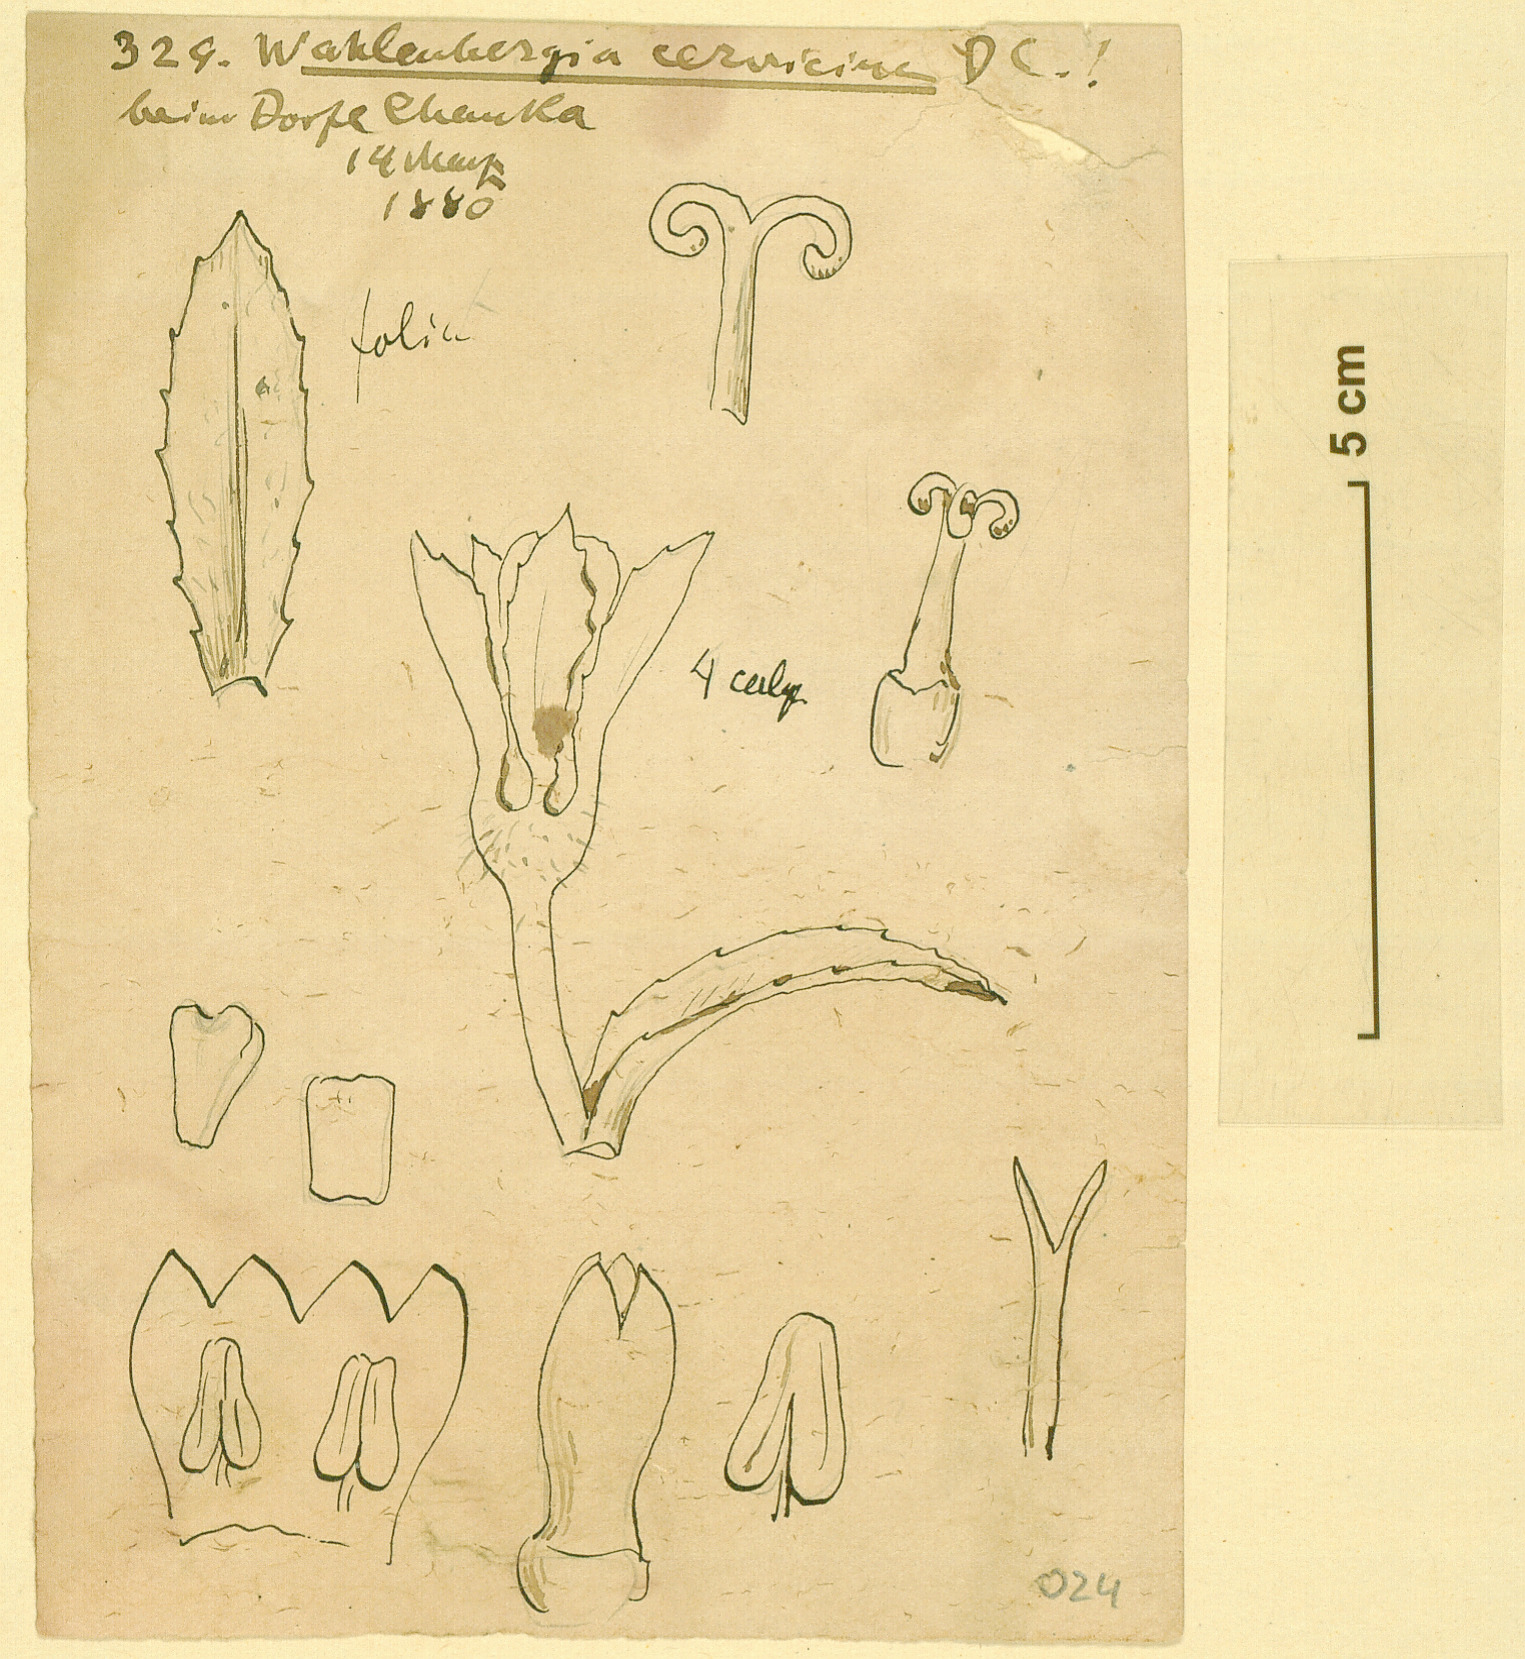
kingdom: Plantae
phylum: Tracheophyta
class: Magnoliopsida
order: Asterales
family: Campanulaceae
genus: Wahlenbergia
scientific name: Wahlenbergia campanuloides
